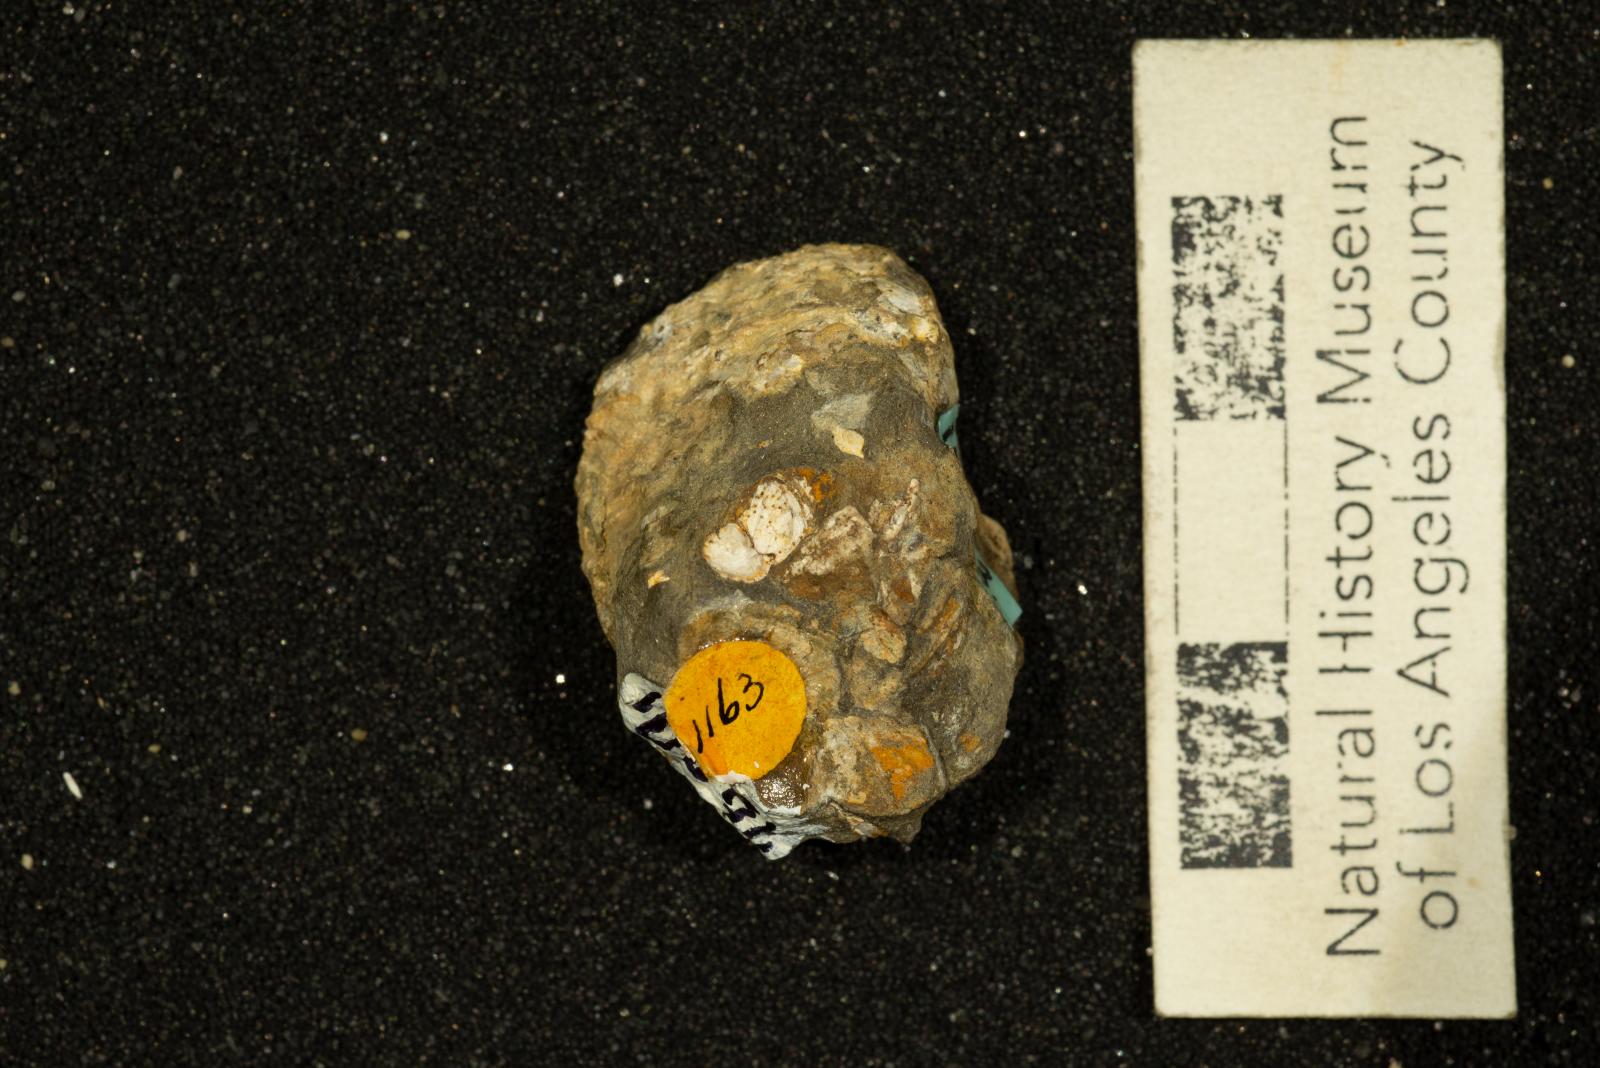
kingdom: Animalia
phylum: Mollusca
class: Gastropoda
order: Littorinimorpha
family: Calyptraeidae
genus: Lysis
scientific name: Lysis duplicosta
